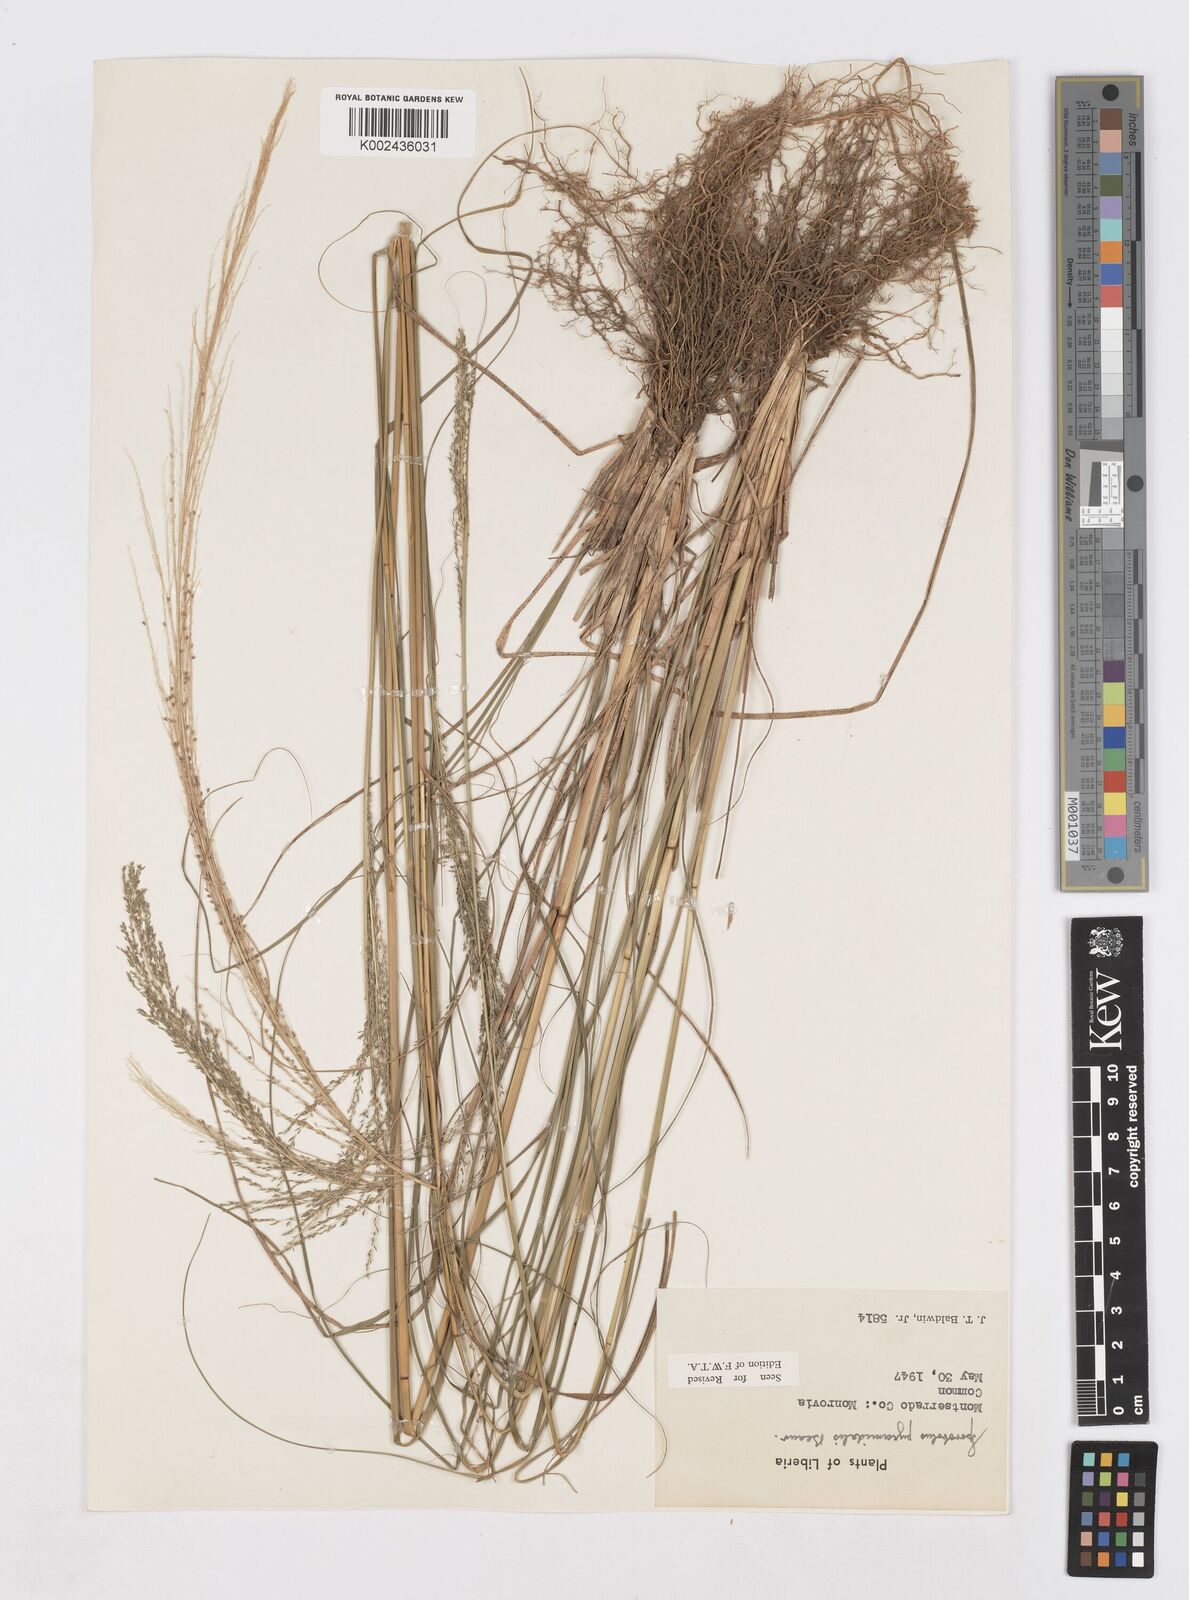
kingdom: Plantae
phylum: Tracheophyta
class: Liliopsida
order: Poales
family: Poaceae
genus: Sporobolus
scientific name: Sporobolus pyramidalis
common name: West indian dropseed
